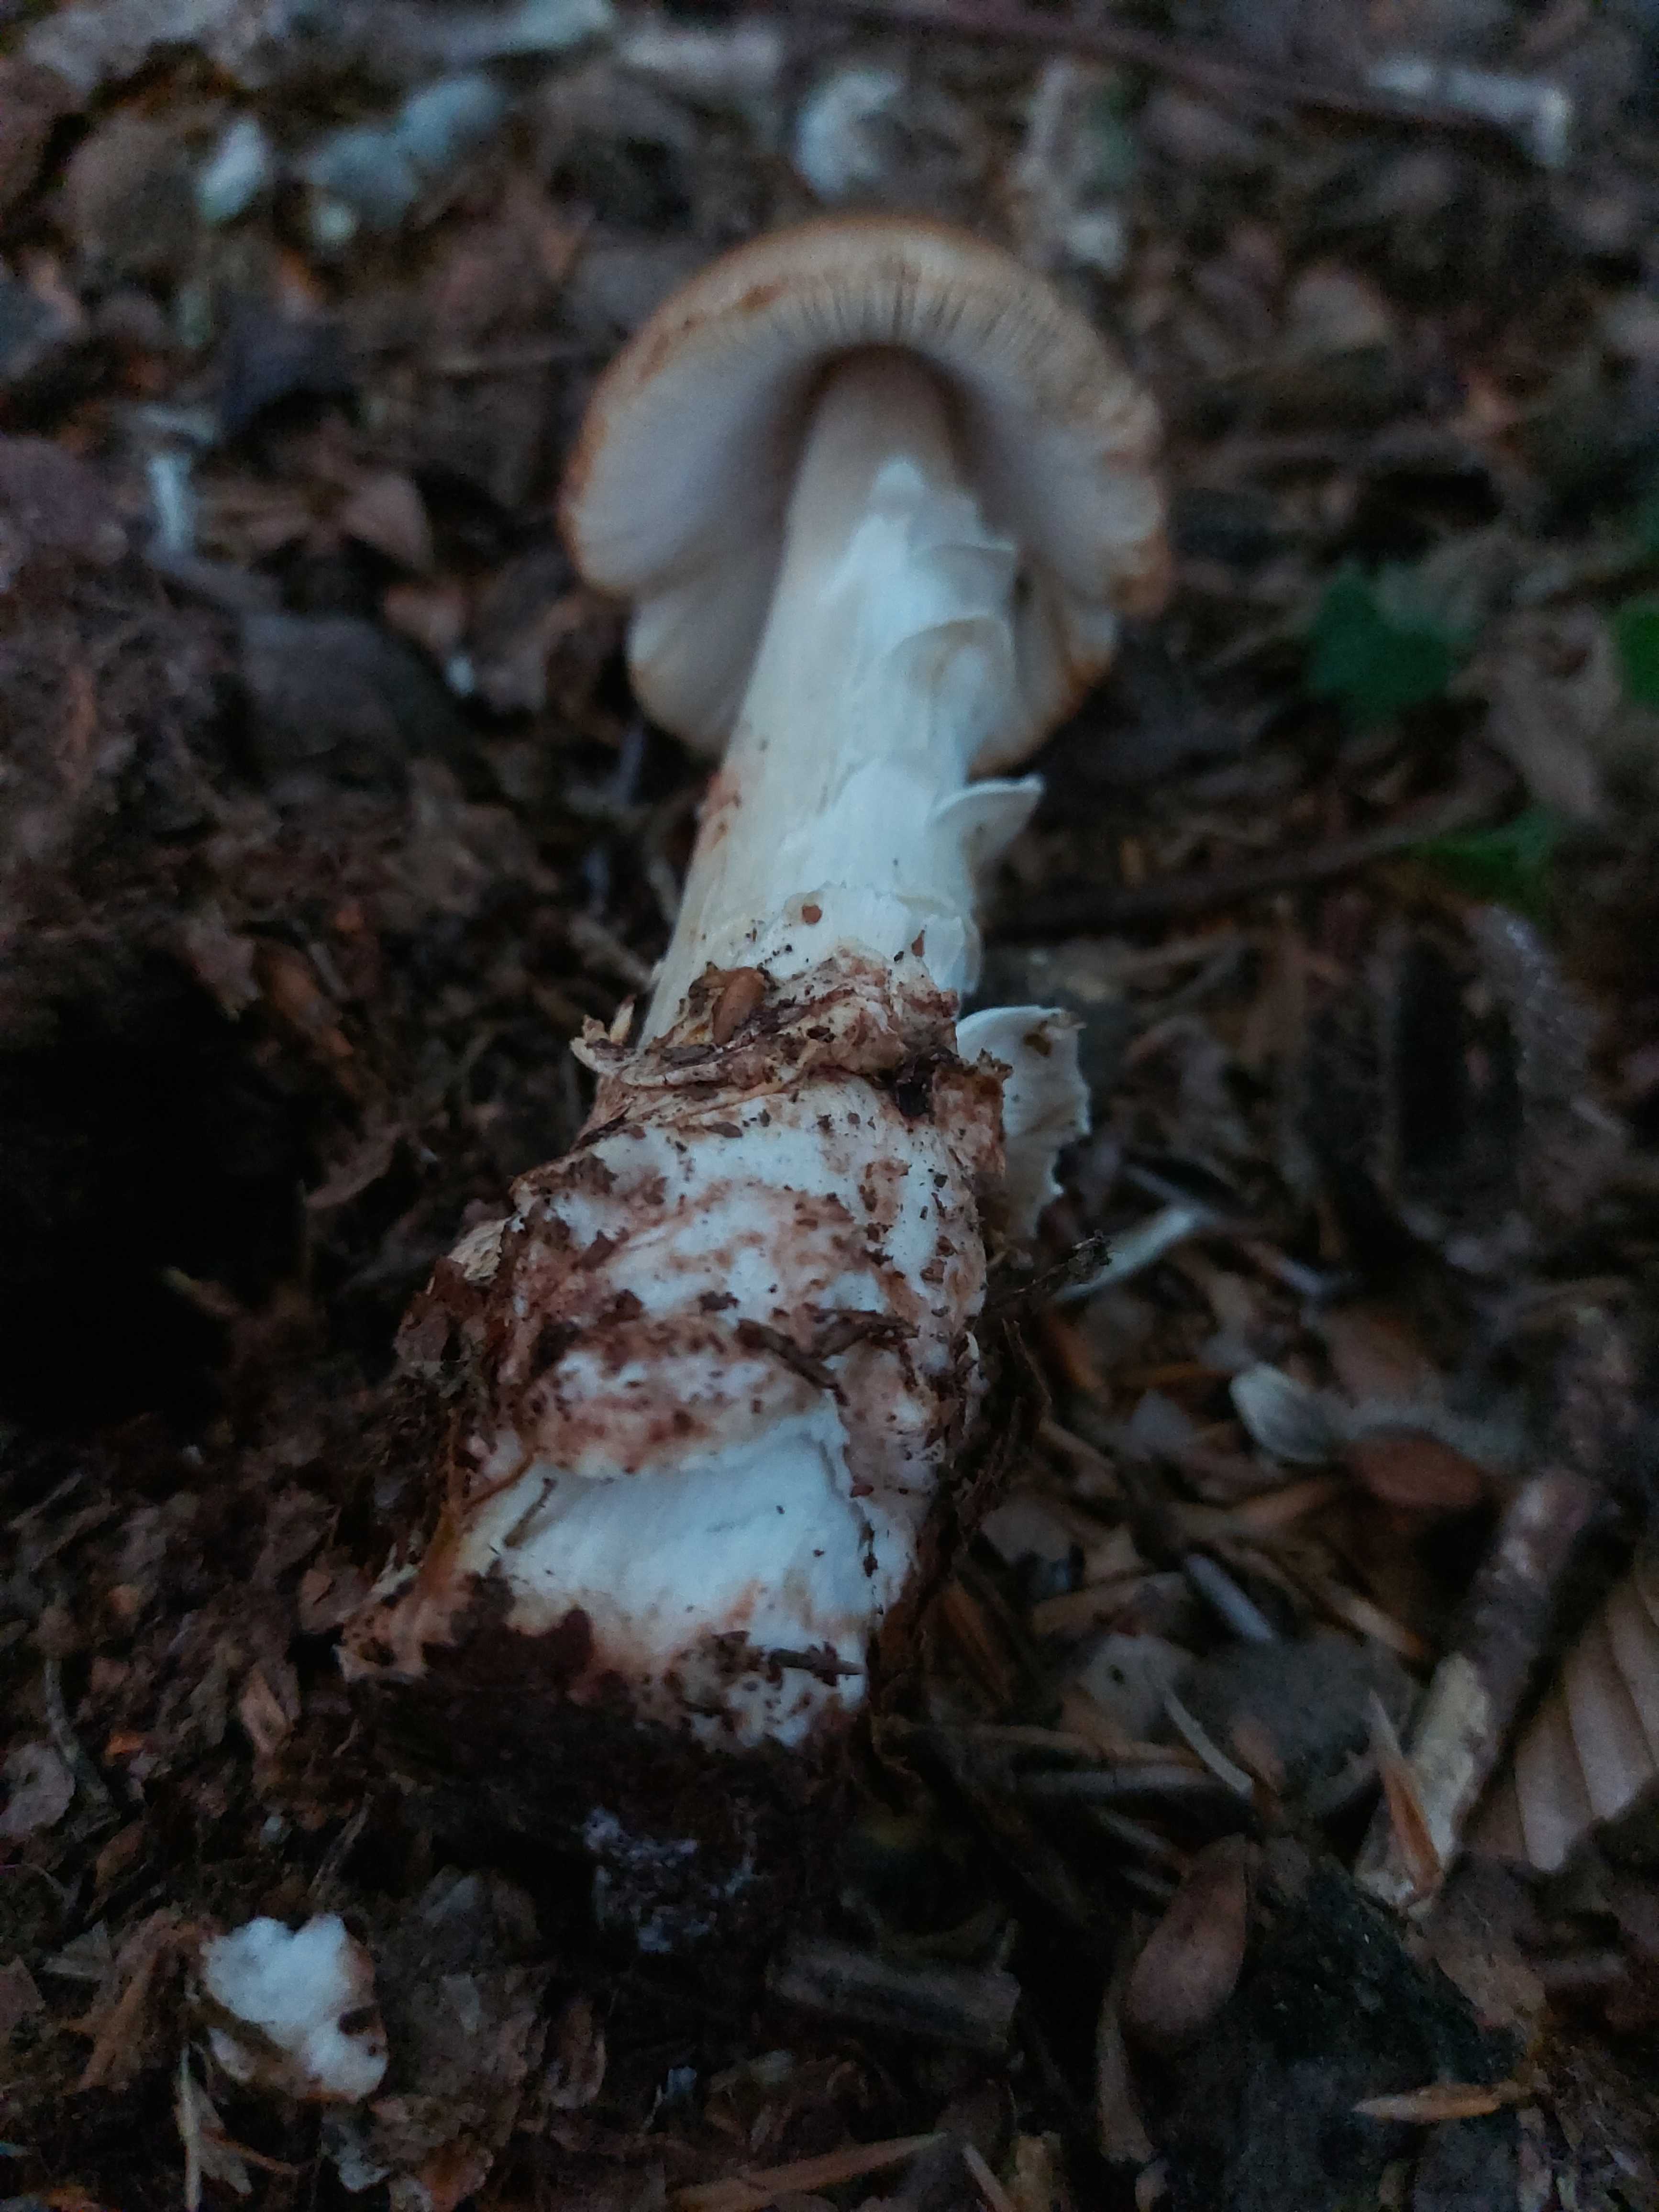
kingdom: Fungi
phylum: Basidiomycota
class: Agaricomycetes
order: Agaricales
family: Amanitaceae
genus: Amanita
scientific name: Amanita fulva
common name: brun kam-fluesvamp
